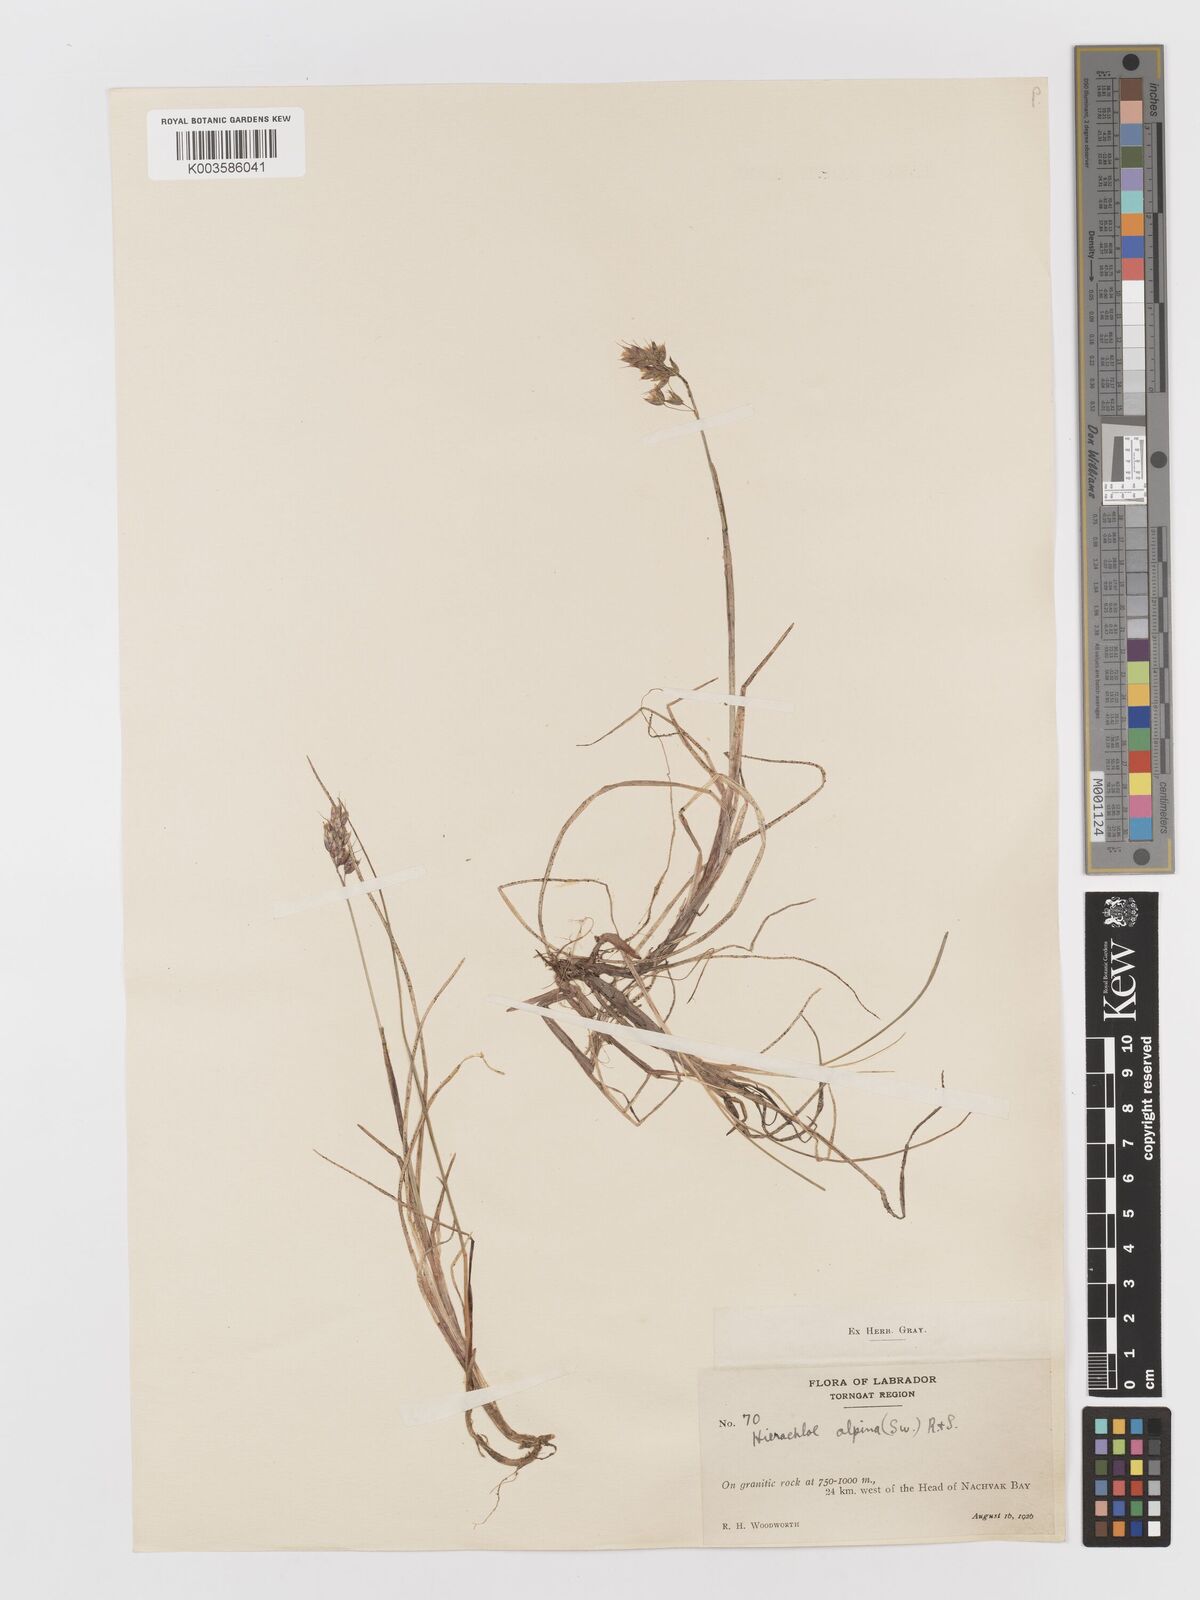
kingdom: Plantae
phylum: Tracheophyta
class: Liliopsida
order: Poales
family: Poaceae
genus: Anthoxanthum
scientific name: Anthoxanthum monticola
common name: Alpine sweetgrass
